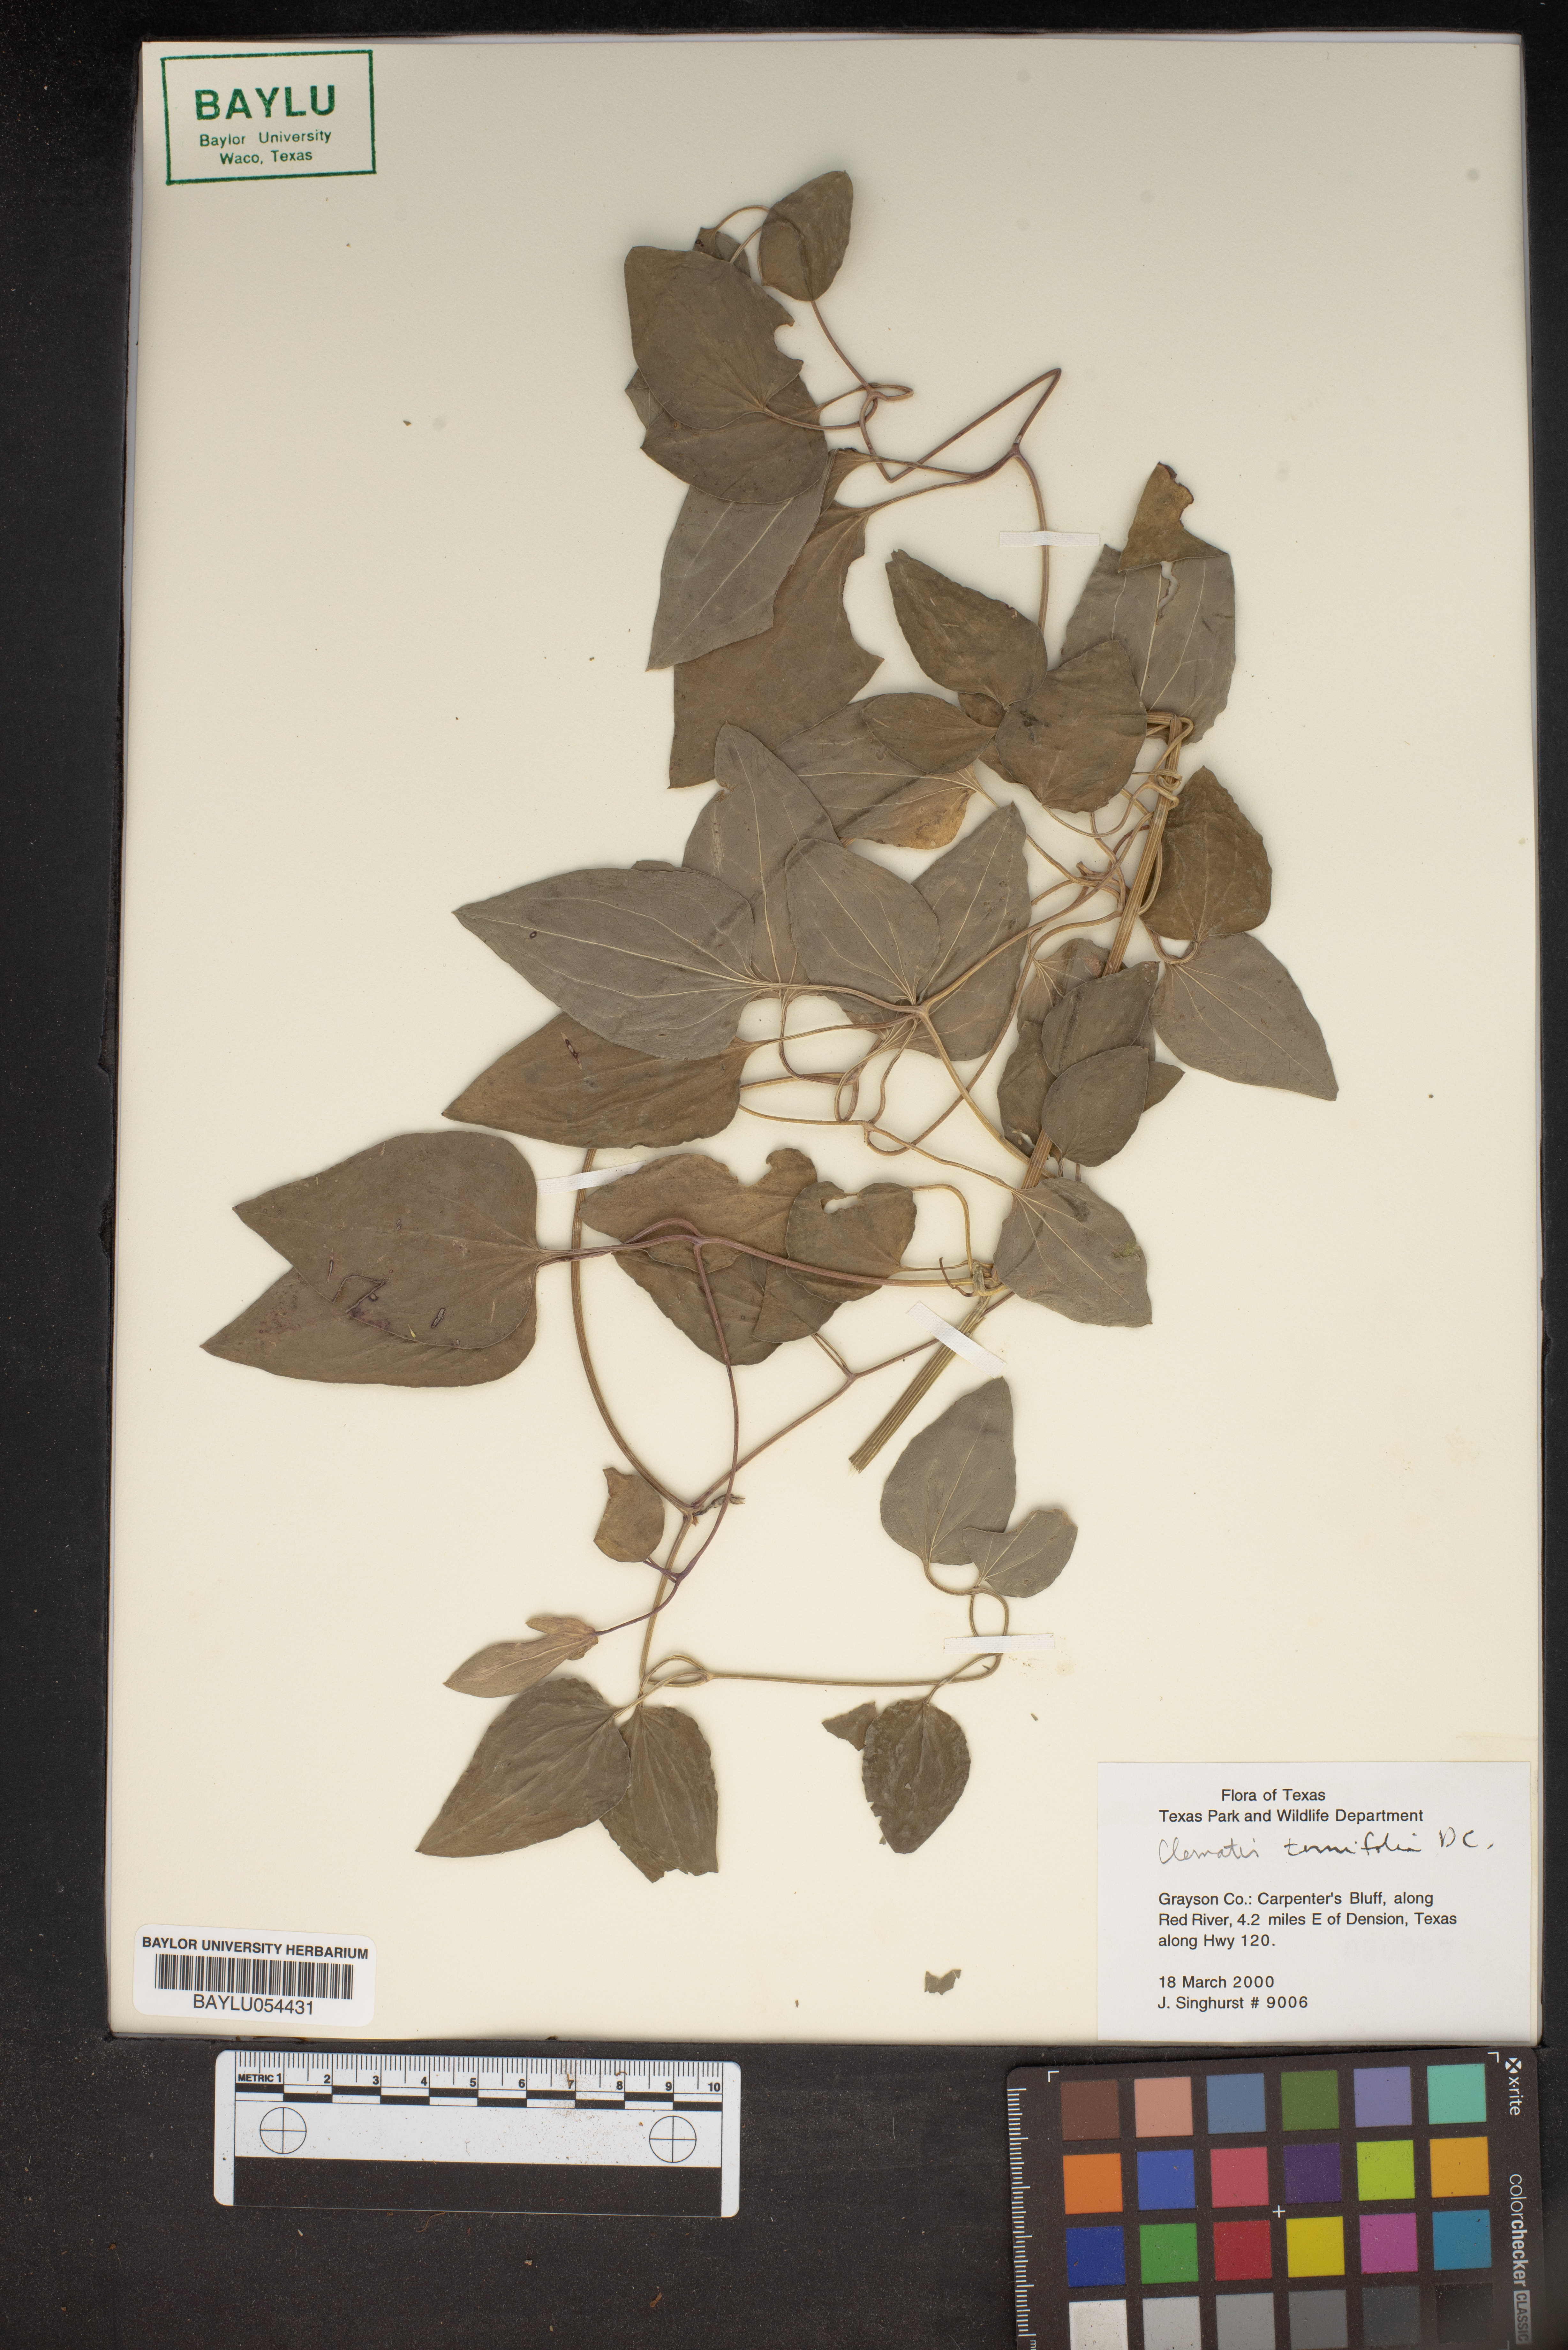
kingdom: Plantae
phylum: Tracheophyta
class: Magnoliopsida
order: Ranunculales
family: Ranunculaceae
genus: Clematis
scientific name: Clematis recta
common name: Ground clematis
